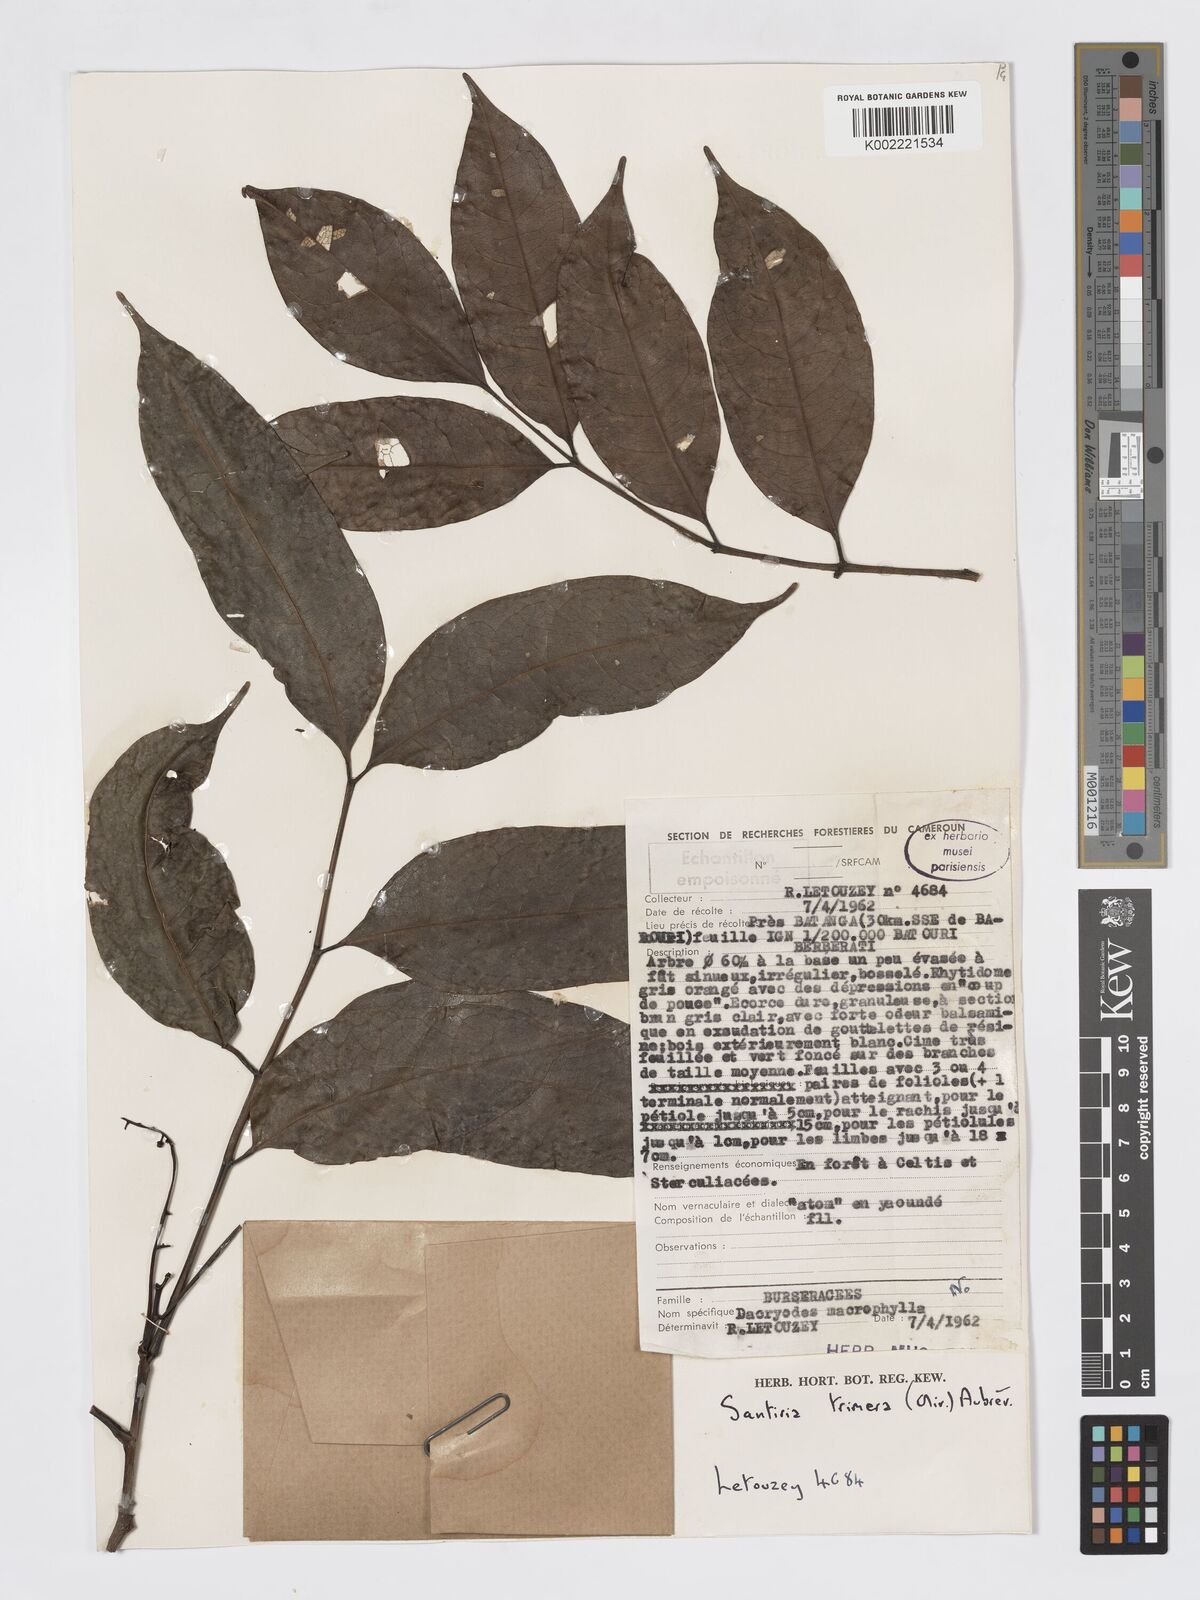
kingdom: Plantae
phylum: Tracheophyta
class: Magnoliopsida
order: Sapindales
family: Burseraceae
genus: Pachylobus
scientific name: Pachylobus trimerus
